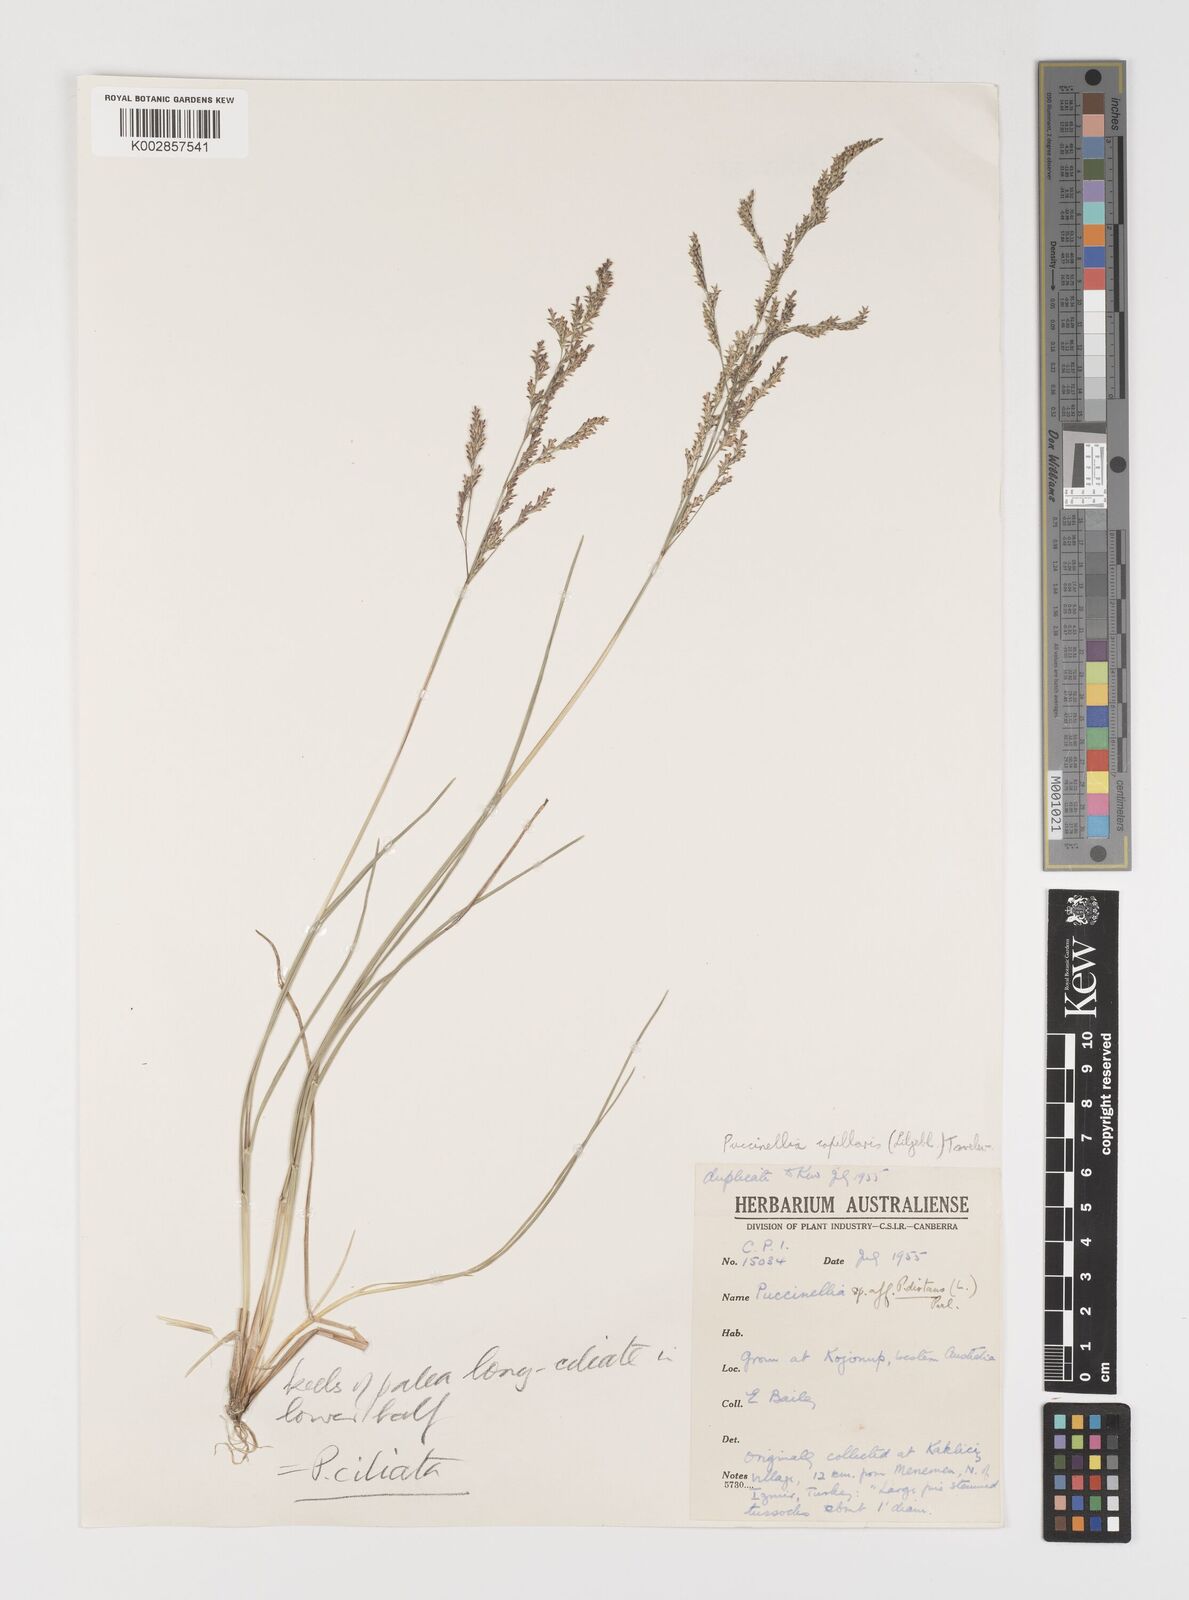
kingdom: Plantae
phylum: Tracheophyta
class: Liliopsida
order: Poales
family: Poaceae
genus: Puccinellia
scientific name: Puccinellia distans
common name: Weeping alkaligrass
